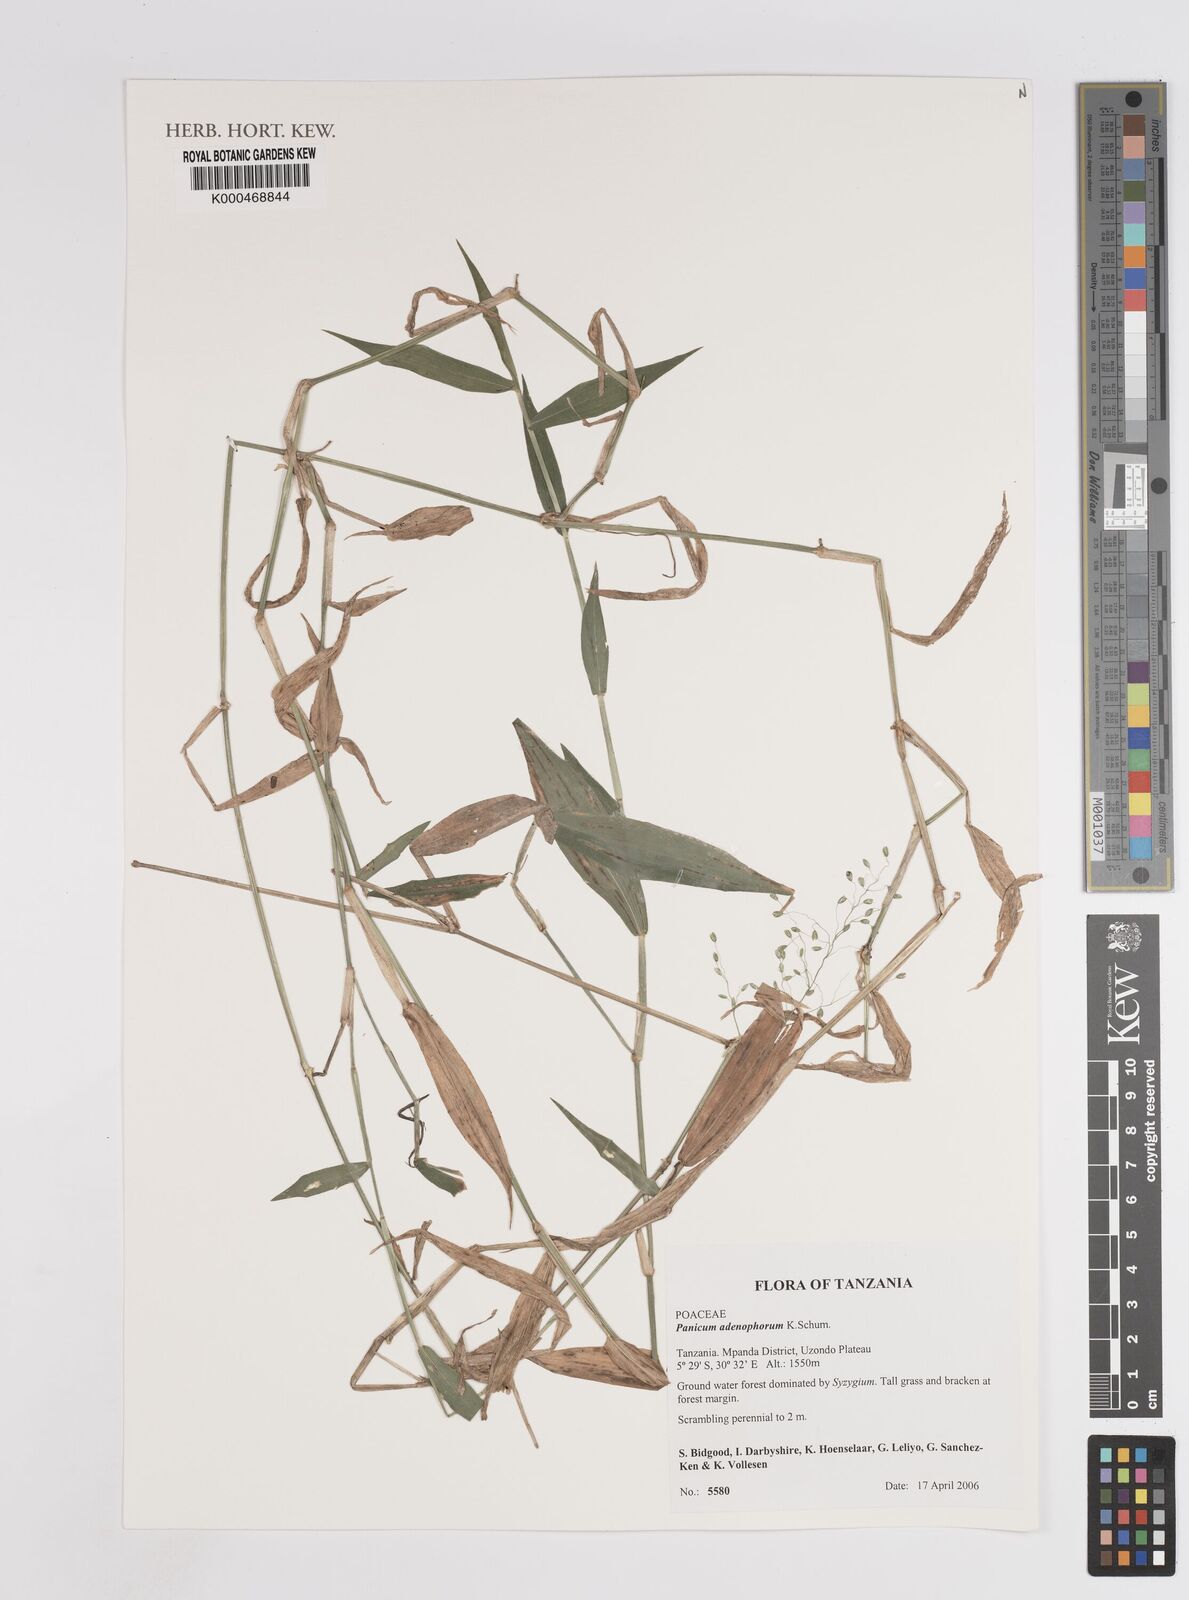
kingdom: Plantae
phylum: Tracheophyta
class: Liliopsida
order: Poales
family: Poaceae
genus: Adenochloa
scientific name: Adenochloa adenophora
